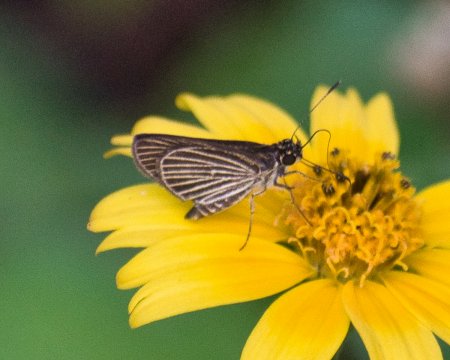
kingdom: Animalia
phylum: Arthropoda
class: Insecta
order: Lepidoptera
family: Hesperiidae
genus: Callimormus
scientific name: Callimormus radiola
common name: Radiant Skipper
